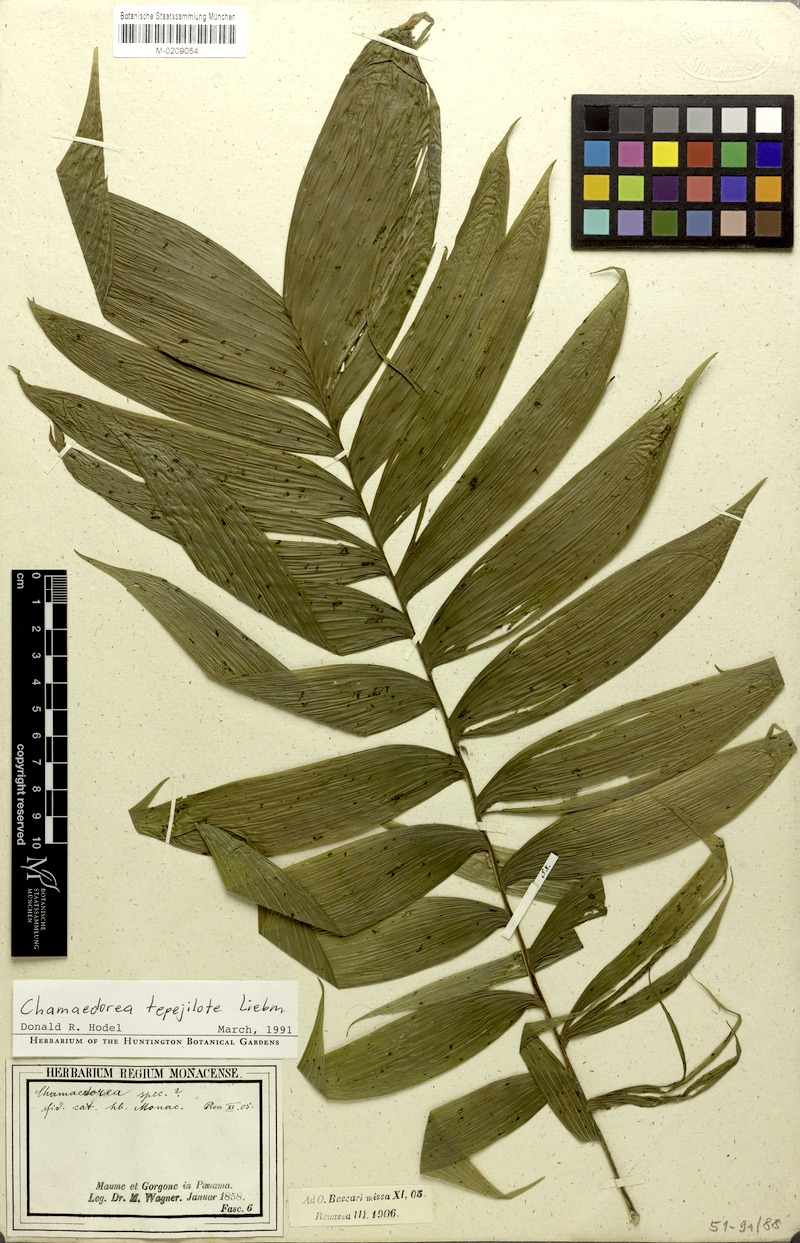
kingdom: Plantae
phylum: Tracheophyta
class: Liliopsida
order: Arecales
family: Arecaceae
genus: Chamaedorea
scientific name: Chamaedorea tepejilote
